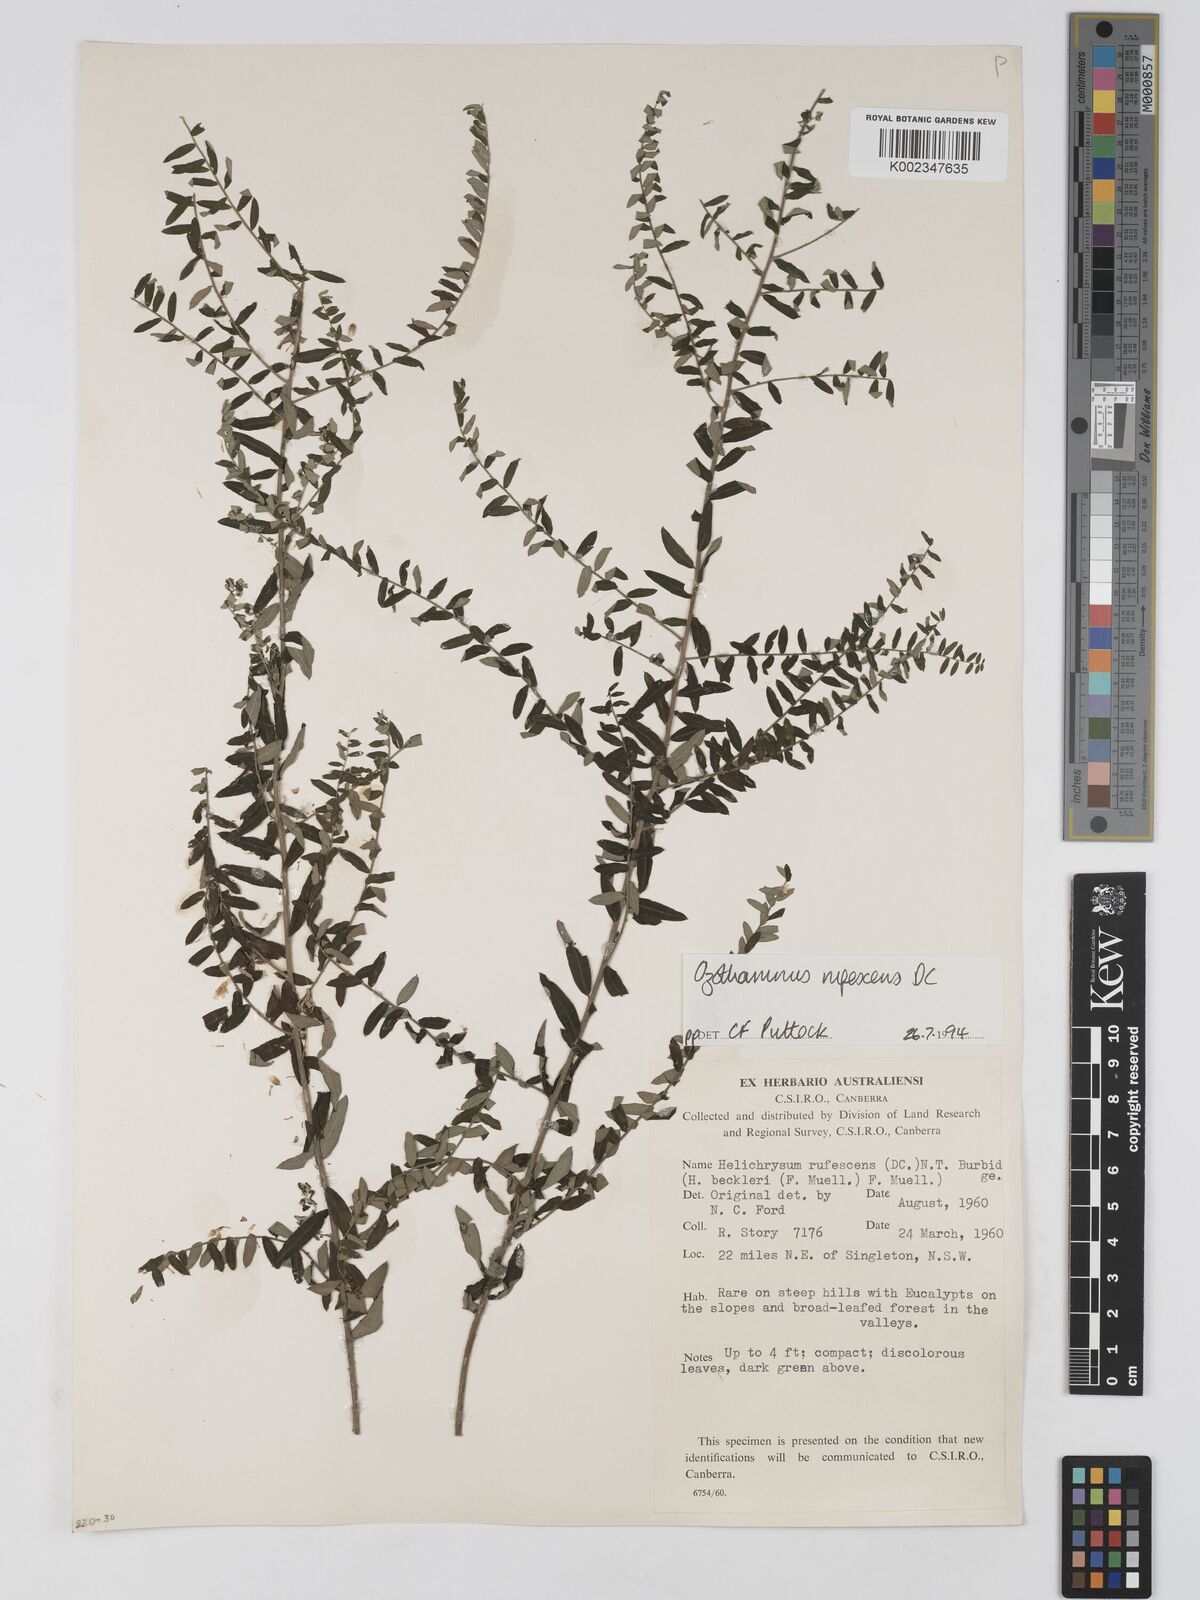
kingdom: Plantae
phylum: Tracheophyta
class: Magnoliopsida
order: Asterales
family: Asteraceae
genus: Ozothamnus
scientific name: Ozothamnus rufescens
